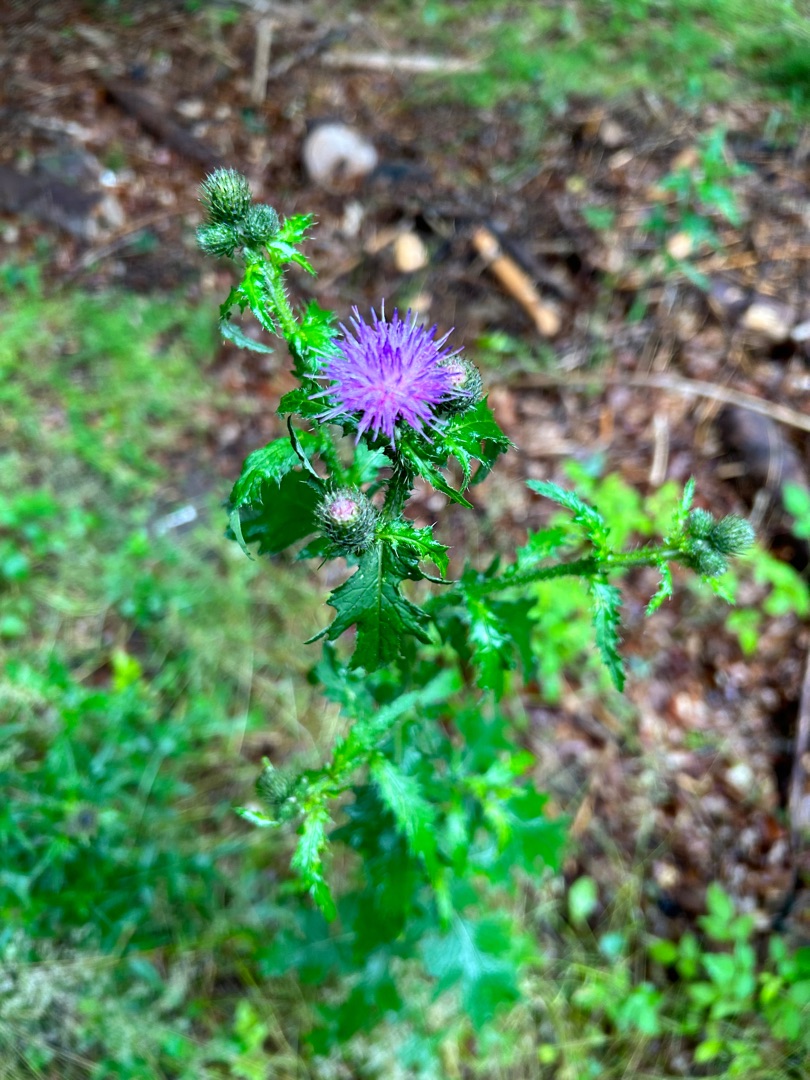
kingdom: Plantae
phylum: Tracheophyta
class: Magnoliopsida
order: Asterales
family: Asteraceae
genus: Carduus
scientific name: Carduus crispus
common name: Kruset tidsel
